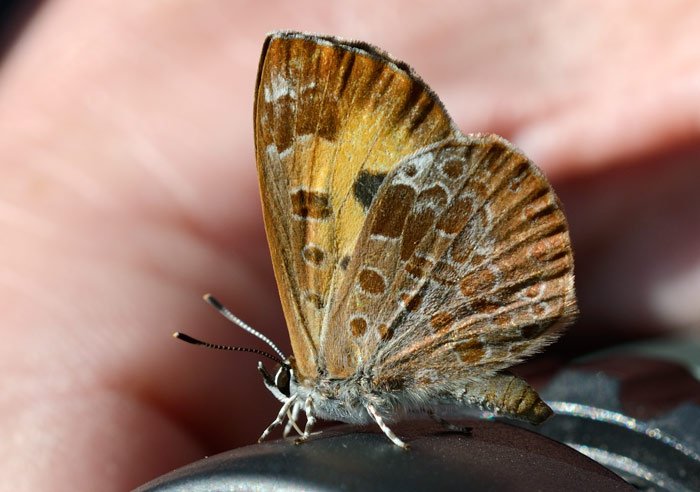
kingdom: Animalia
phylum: Arthropoda
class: Insecta
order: Lepidoptera
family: Lycaenidae
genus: Feniseca
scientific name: Feniseca tarquinius
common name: Harvester
